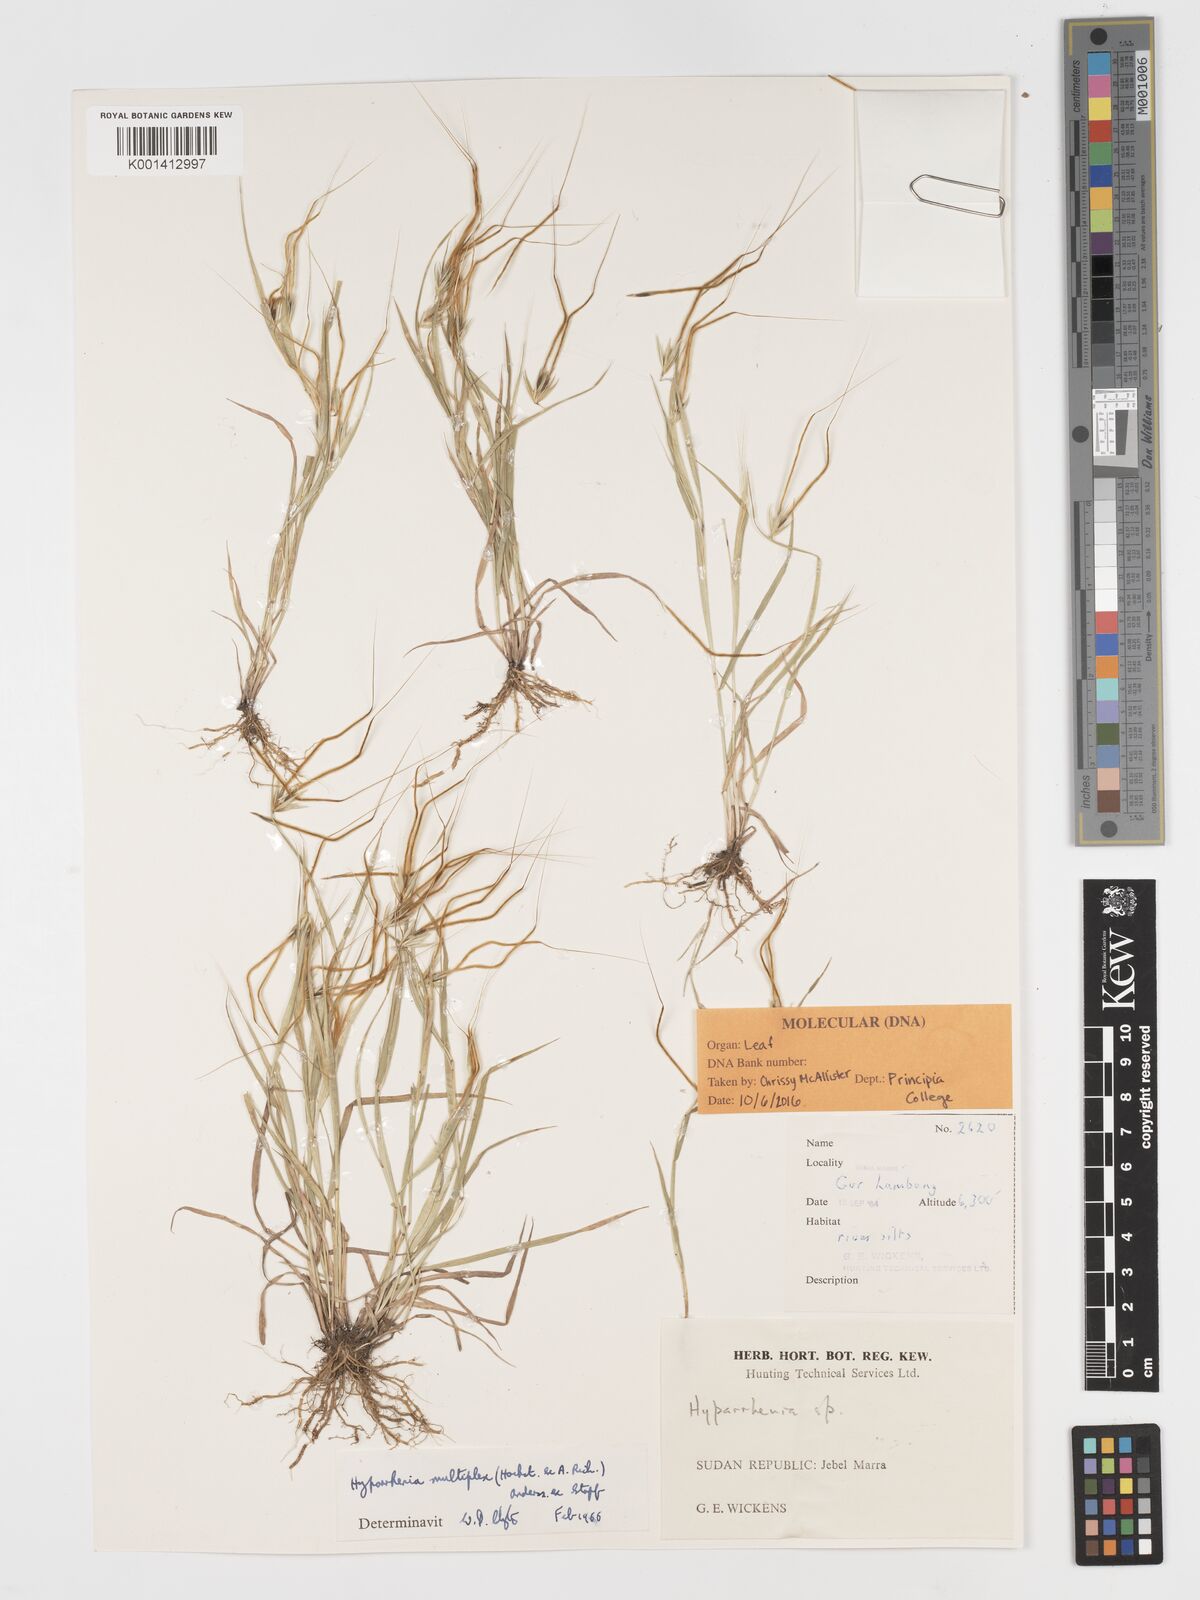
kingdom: Plantae
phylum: Tracheophyta
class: Liliopsida
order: Poales
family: Poaceae
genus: Hyparrhenia
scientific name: Hyparrhenia multiplex
